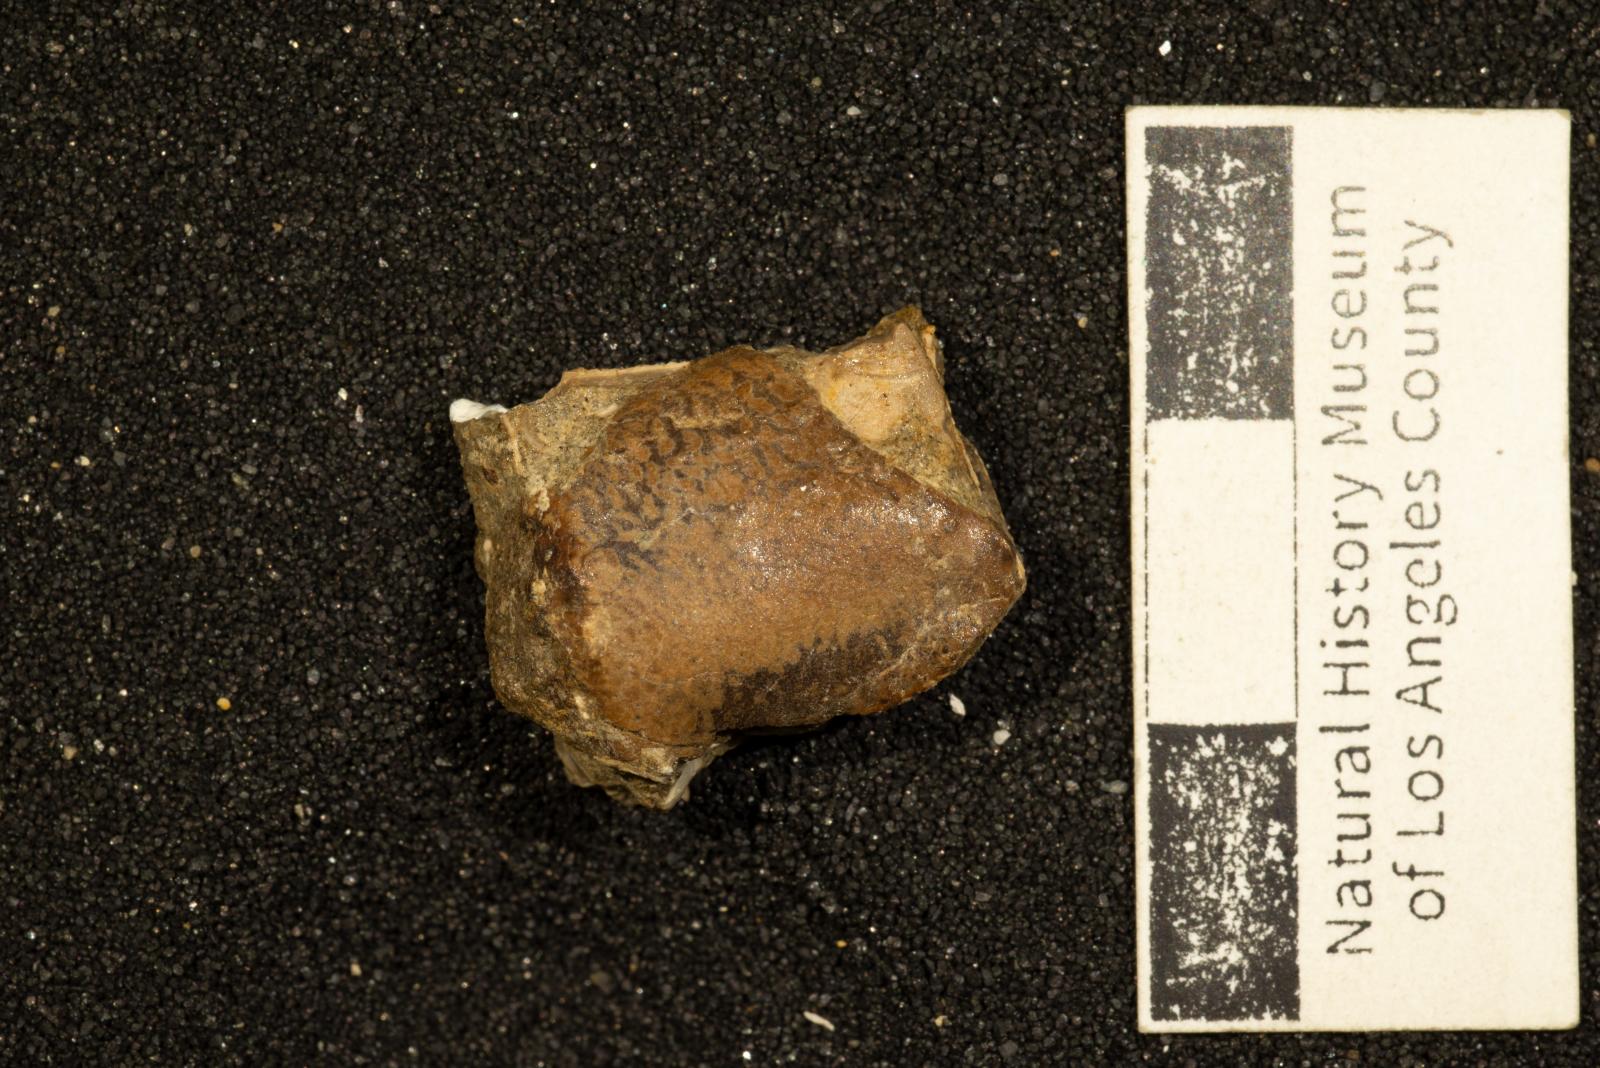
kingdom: Animalia
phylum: Arthropoda
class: Malacostraca
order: Decapoda
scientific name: Decapoda
